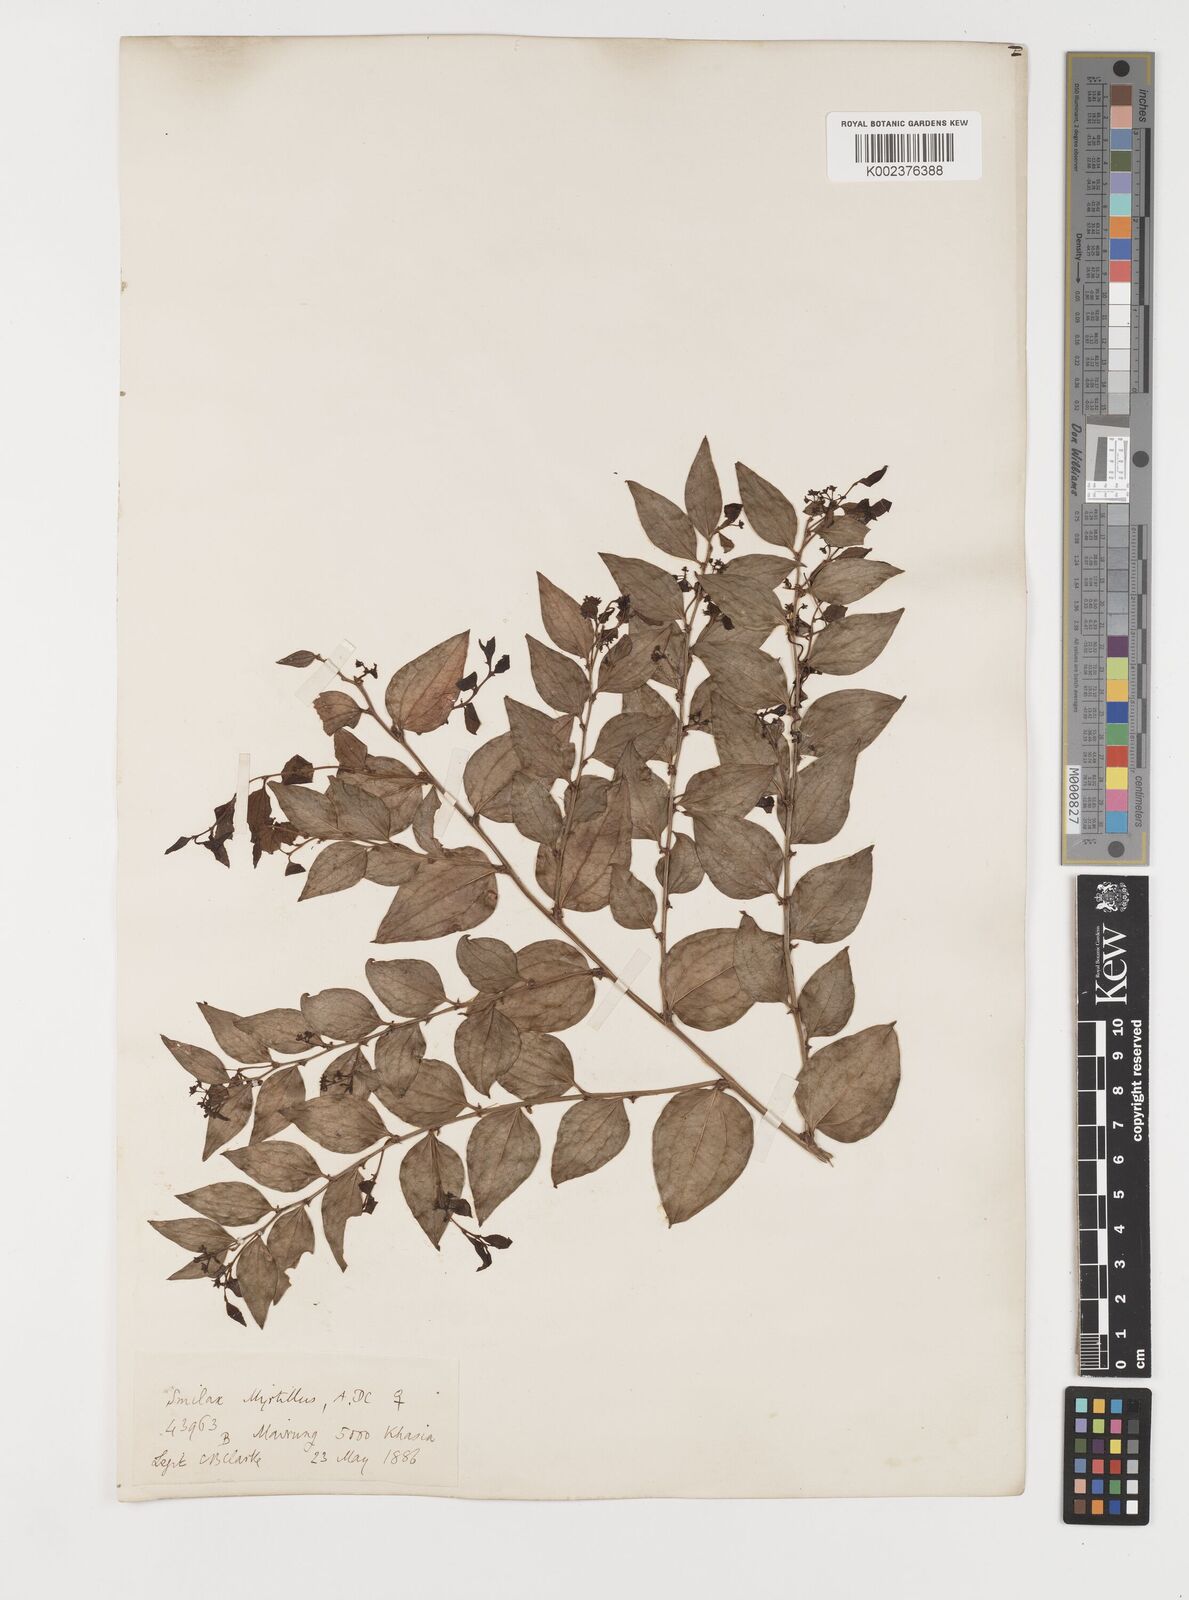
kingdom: Plantae
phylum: Tracheophyta
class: Liliopsida
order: Liliales
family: Smilacaceae
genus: Smilax
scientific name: Smilax myrtillus
